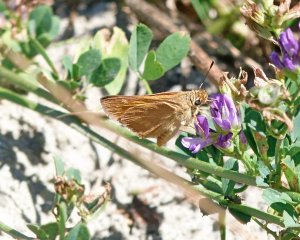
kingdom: Animalia
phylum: Arthropoda
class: Insecta
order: Lepidoptera
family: Hesperiidae
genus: Ochlodes
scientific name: Ochlodes sylvanoides
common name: Woodland Skipper
